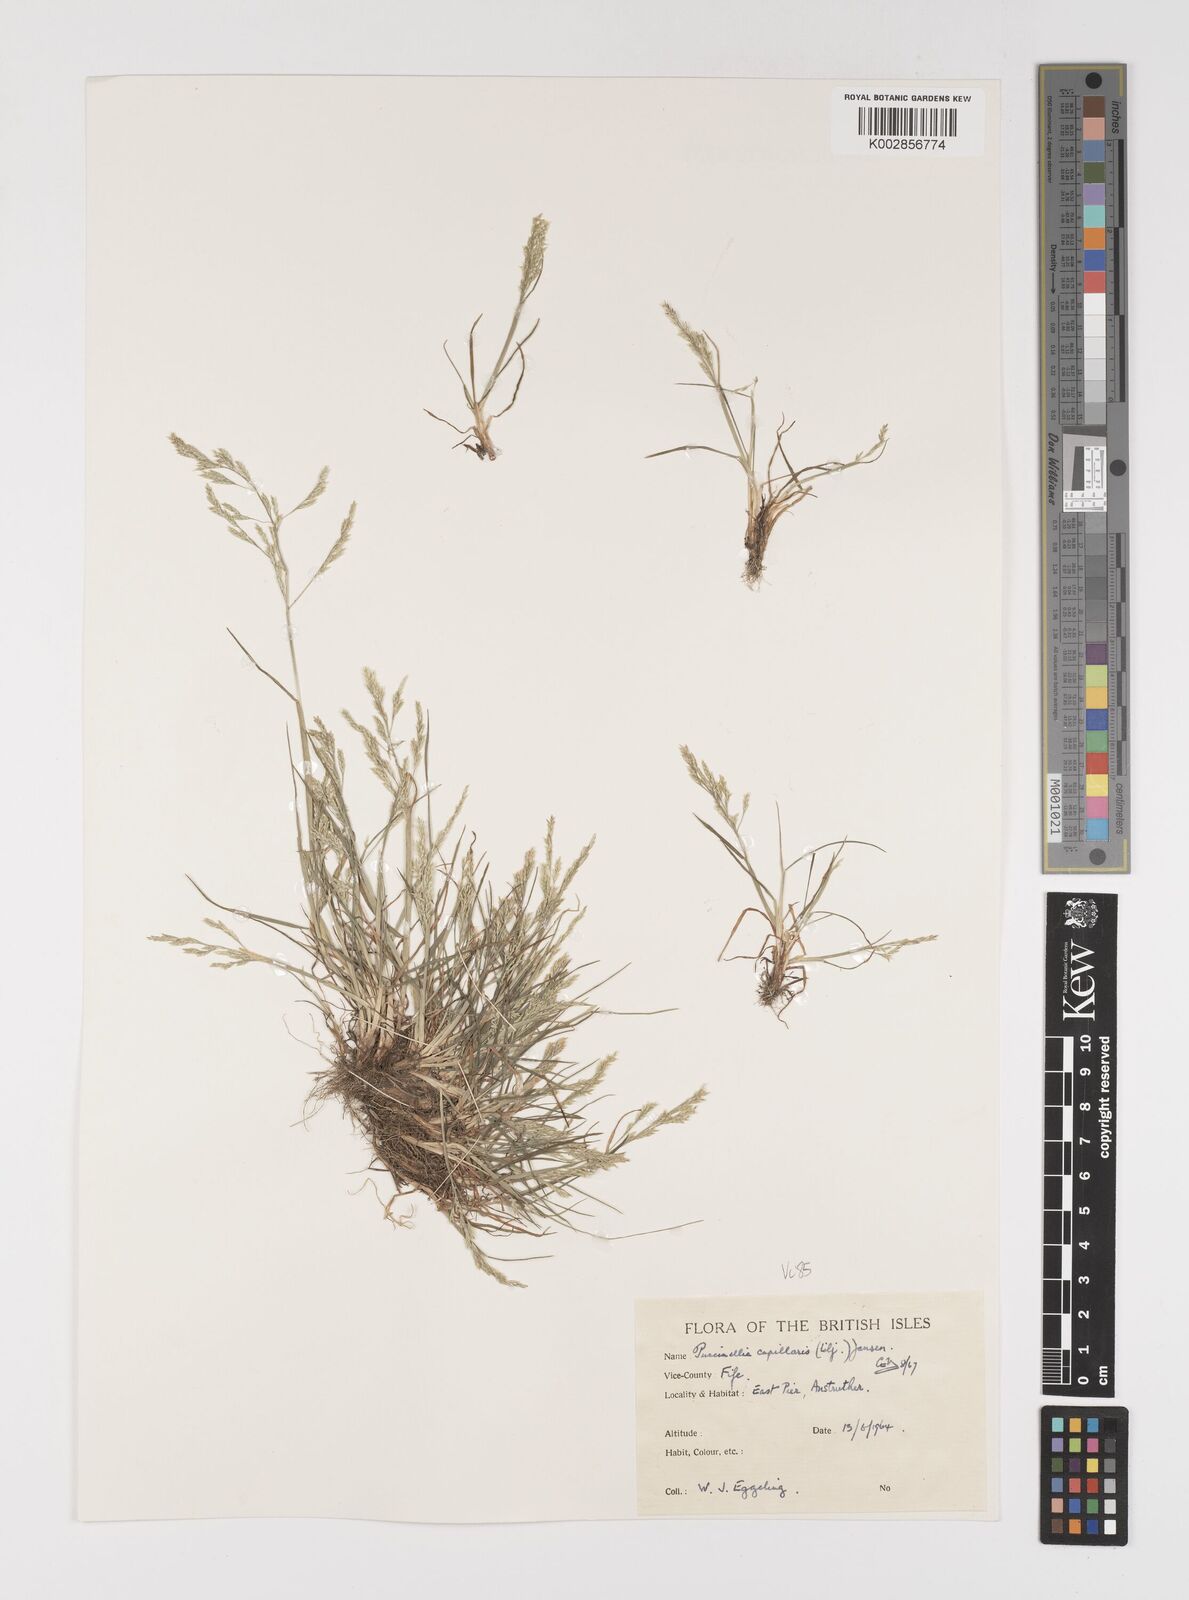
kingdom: Plantae
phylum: Tracheophyta
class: Liliopsida
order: Poales
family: Poaceae
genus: Puccinellia
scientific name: Puccinellia distans
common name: Weeping alkaligrass
